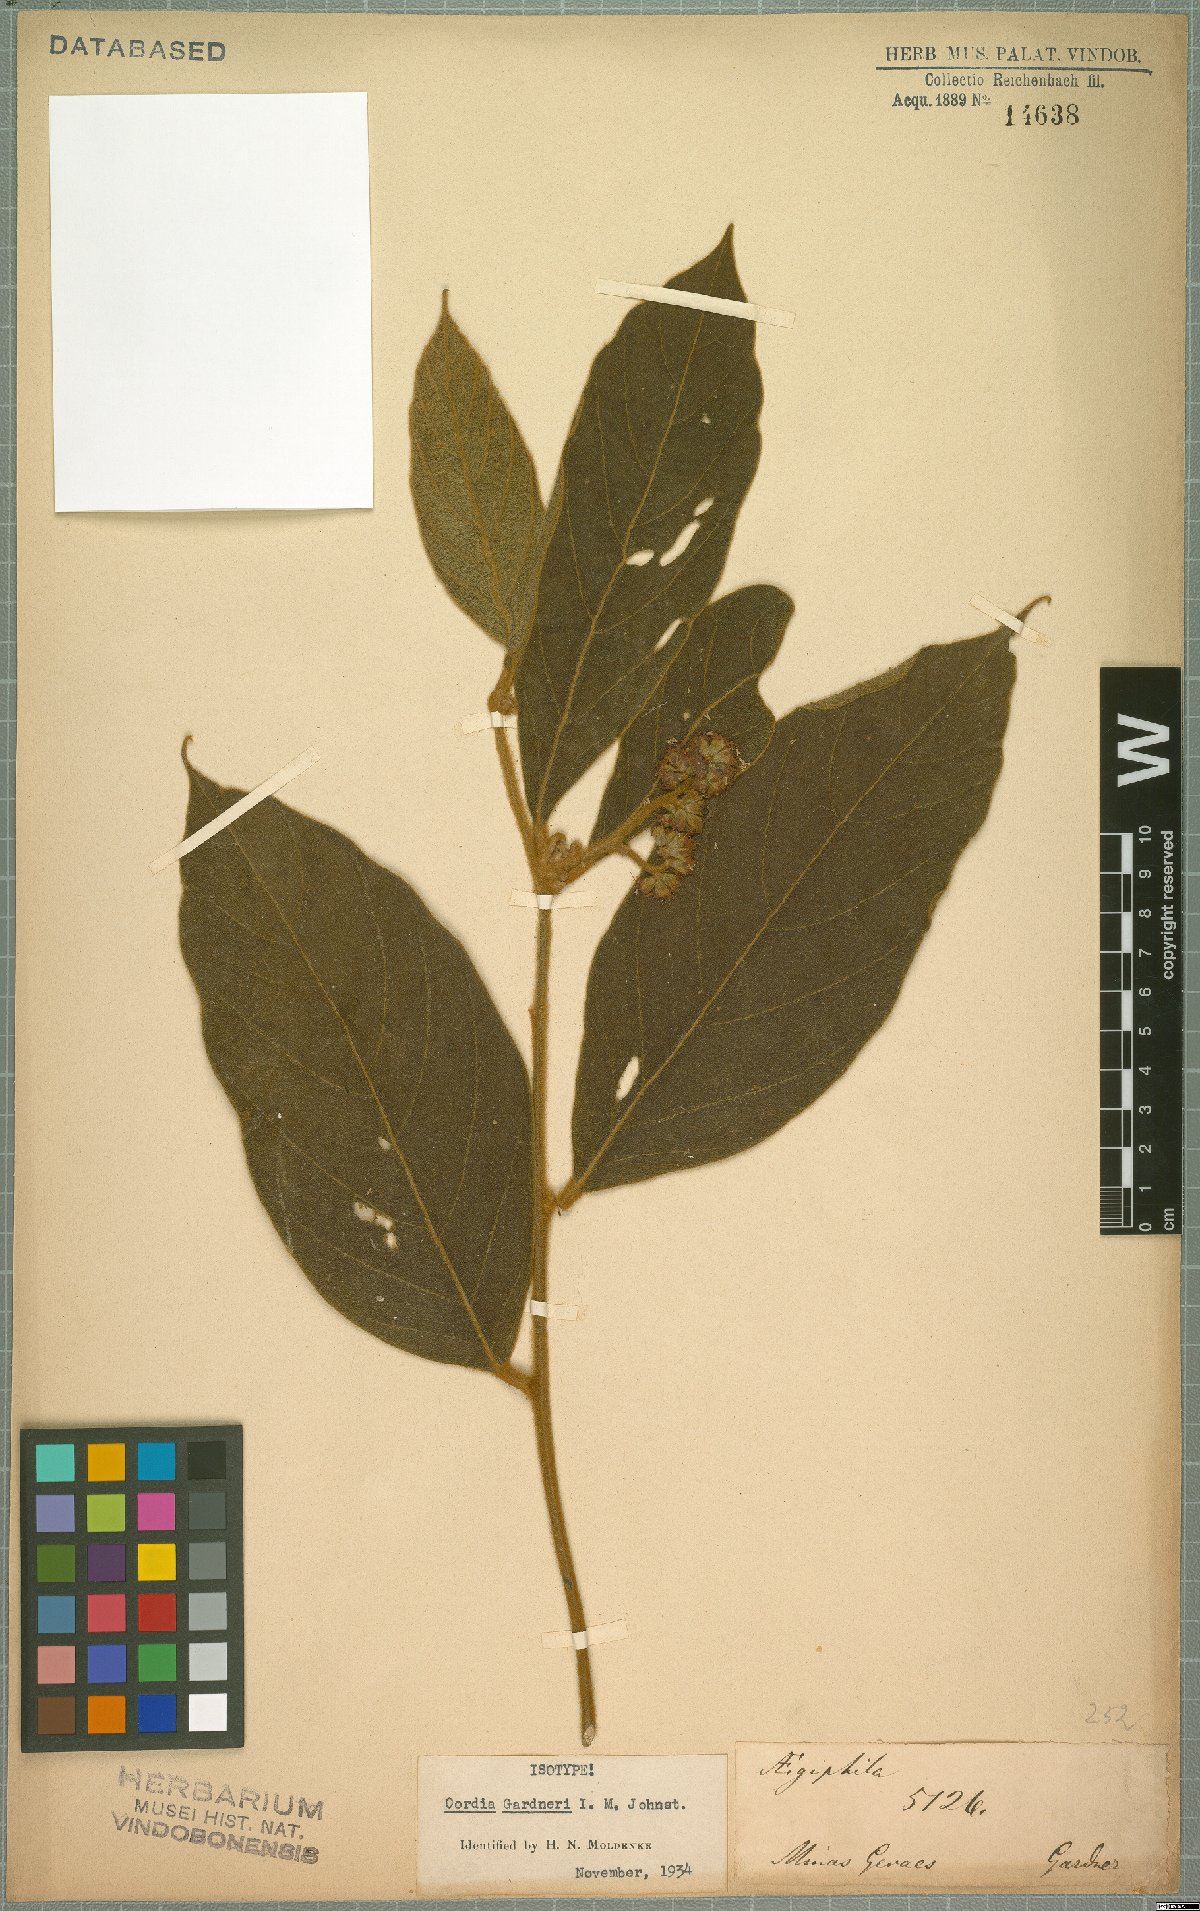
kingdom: Plantae
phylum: Tracheophyta
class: Magnoliopsida
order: Boraginales
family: Cordiaceae
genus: Cordia
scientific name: Cordia gardneri
